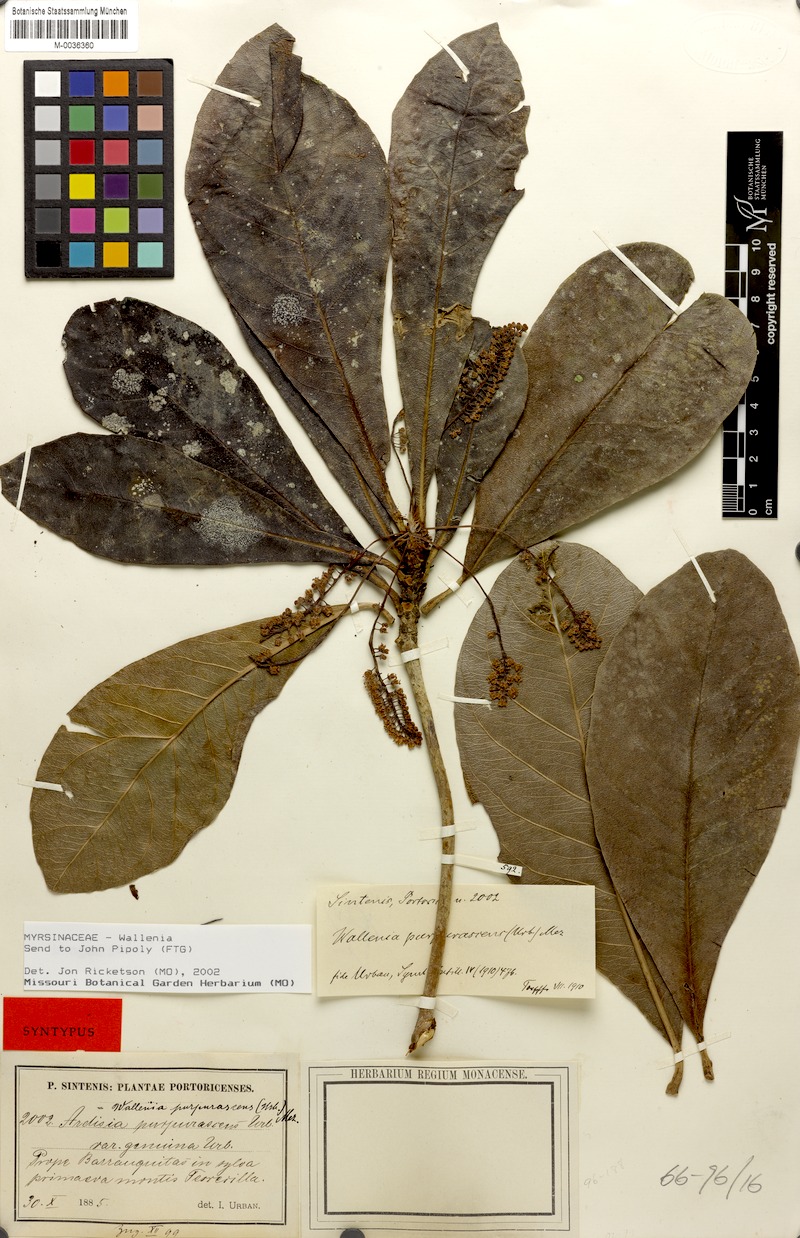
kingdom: Plantae
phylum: Tracheophyta
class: Magnoliopsida
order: Ericales
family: Primulaceae
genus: Wallenia
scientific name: Wallenia lamarckiana
